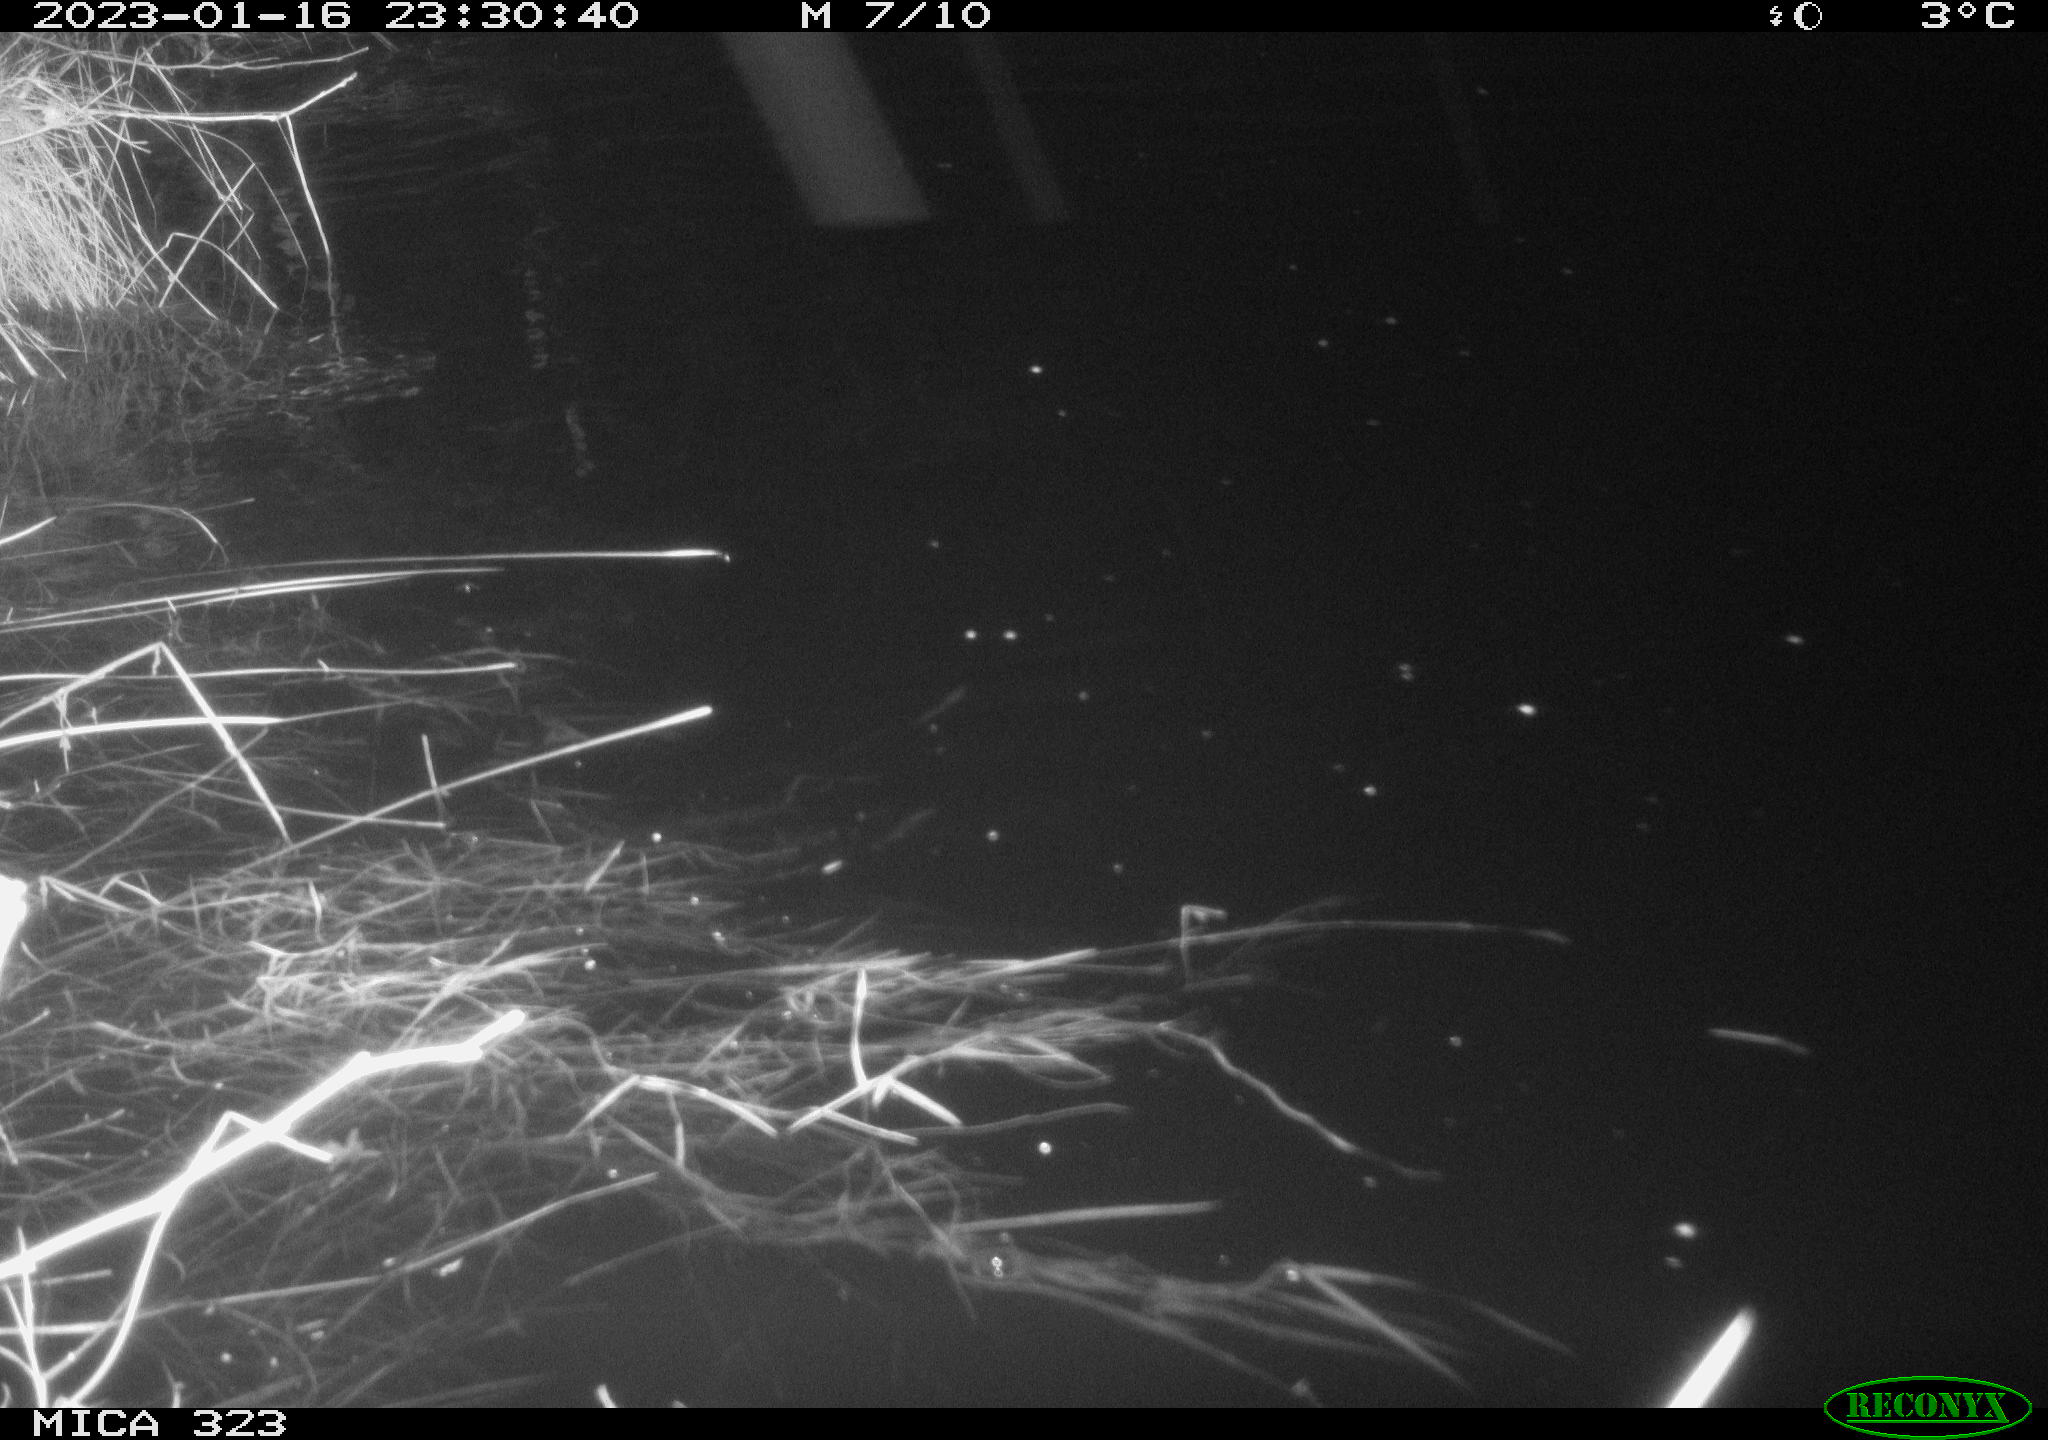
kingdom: Animalia
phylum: Chordata
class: Mammalia
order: Rodentia
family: Cricetidae
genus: Ondatra
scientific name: Ondatra zibethicus
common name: Muskrat
